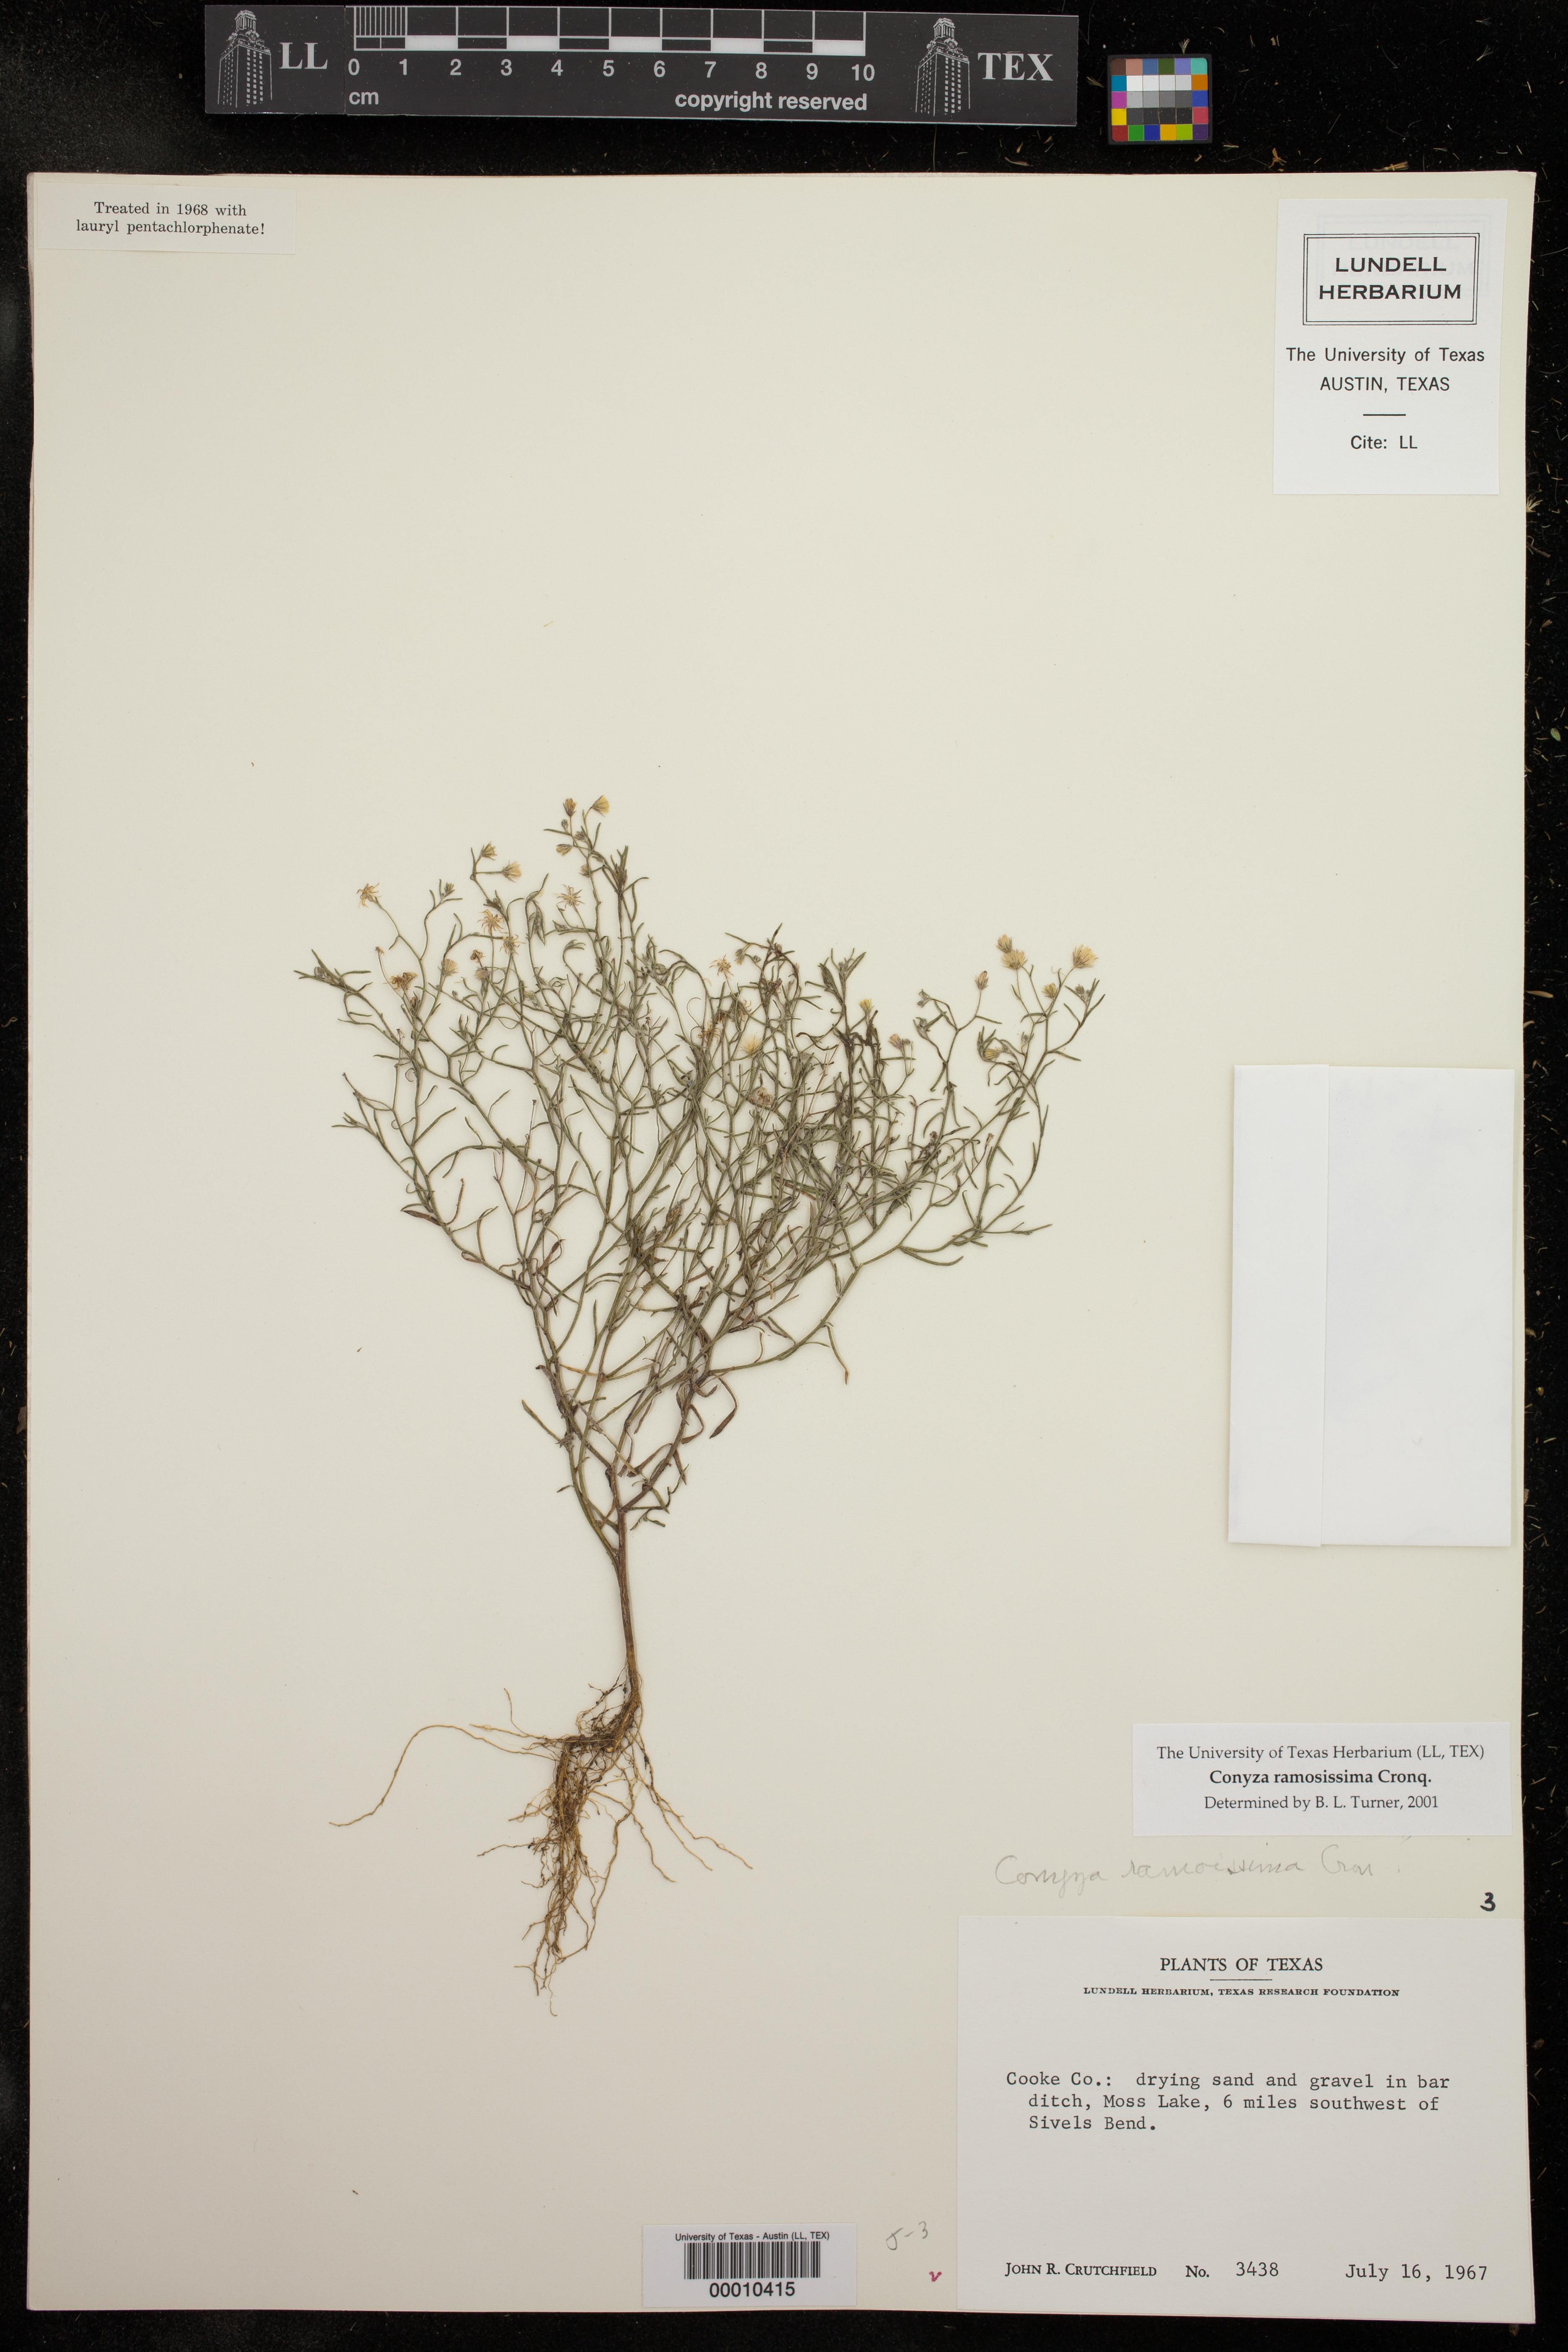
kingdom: Plantae
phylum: Tracheophyta
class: Magnoliopsida
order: Asterales
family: Asteraceae
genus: Erigeron
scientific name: Erigeron divaricatus
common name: Dwarf conyza
